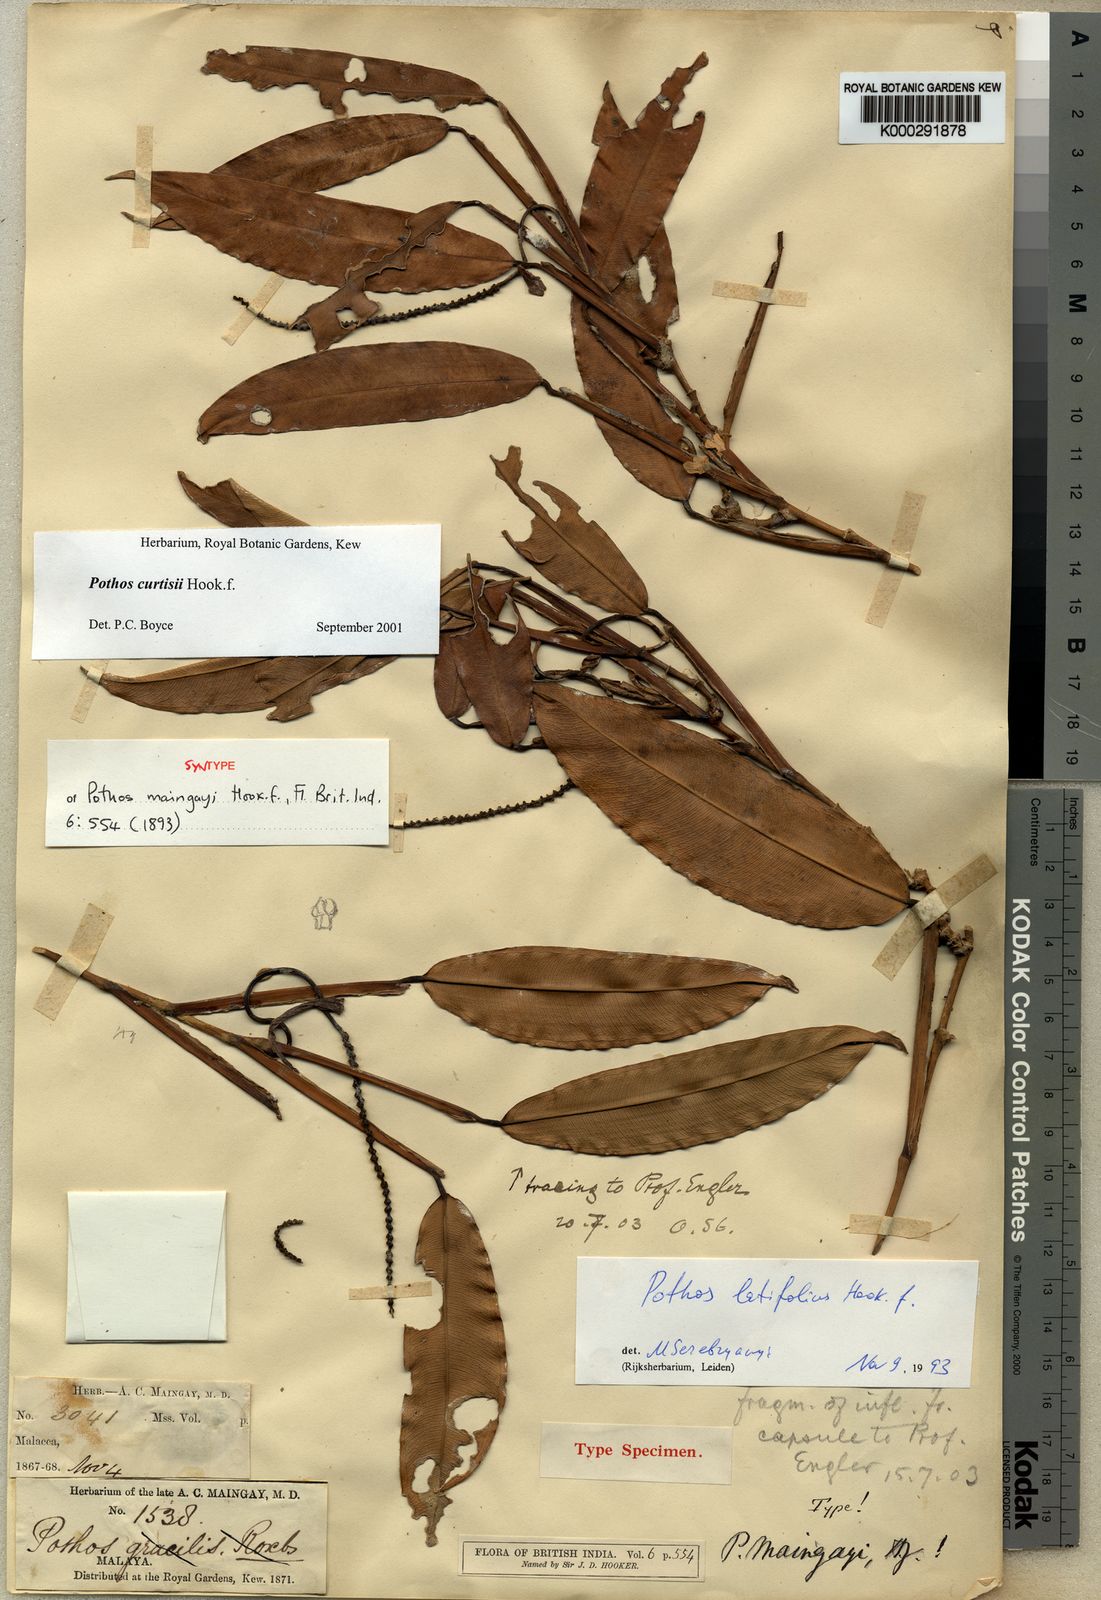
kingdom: Plantae
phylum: Tracheophyta
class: Liliopsida
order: Alismatales
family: Araceae
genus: Pothos
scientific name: Pothos curtisii
